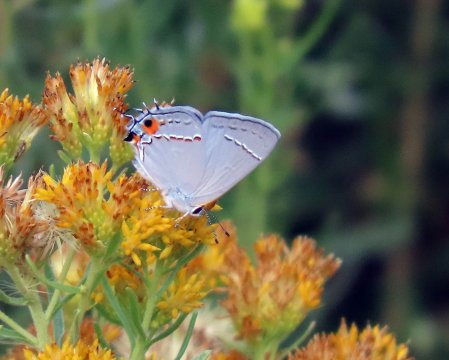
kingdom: Animalia
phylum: Arthropoda
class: Insecta
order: Lepidoptera
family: Lycaenidae
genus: Strymon
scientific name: Strymon melinus
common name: Gray Hairstreak
